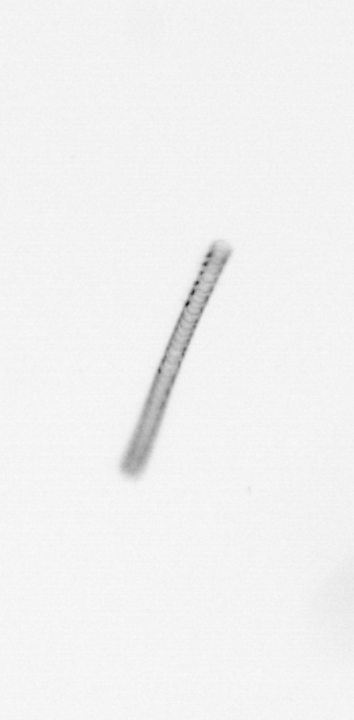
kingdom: Chromista
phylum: Ochrophyta
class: Bacillariophyceae
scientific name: Bacillariophyceae
